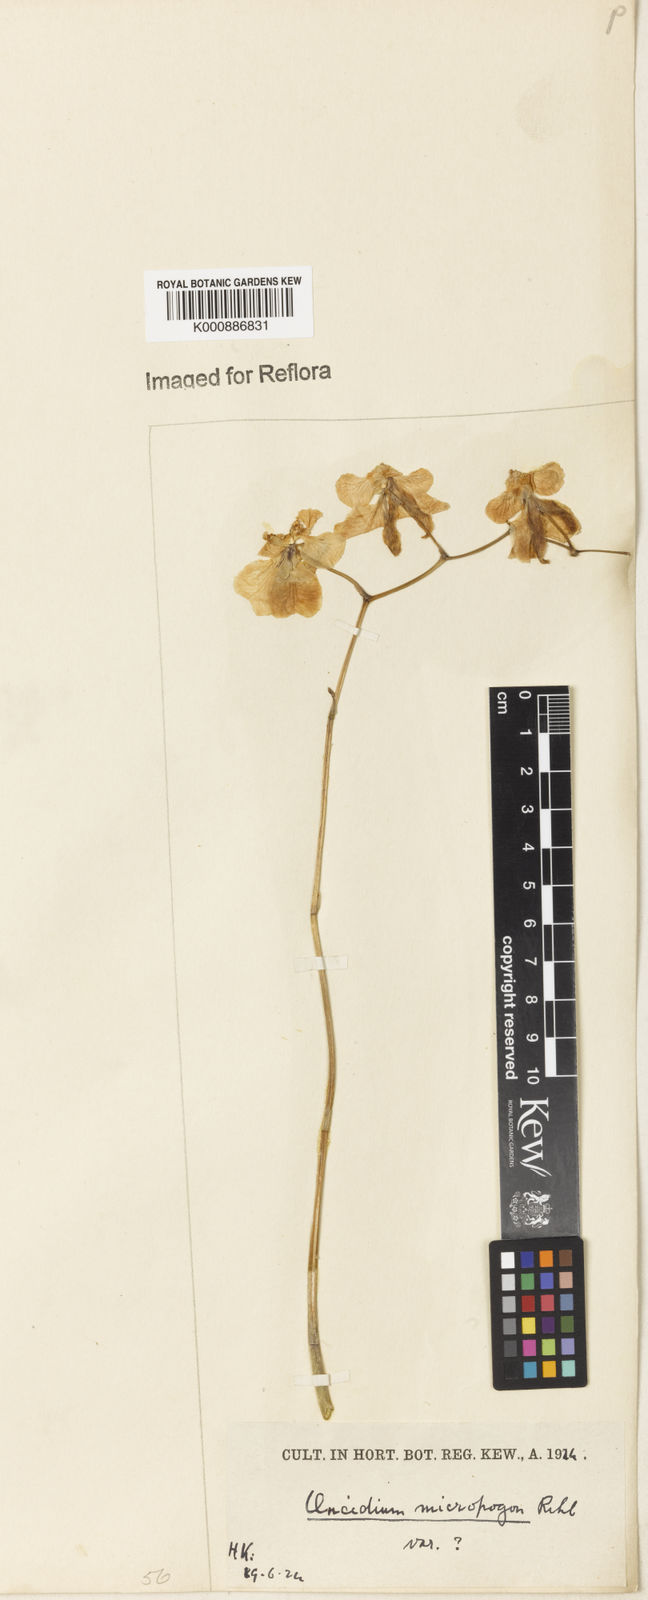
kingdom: Plantae
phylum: Tracheophyta
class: Liliopsida
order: Asparagales
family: Orchidaceae
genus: Gomesa
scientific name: Gomesa ciliata
